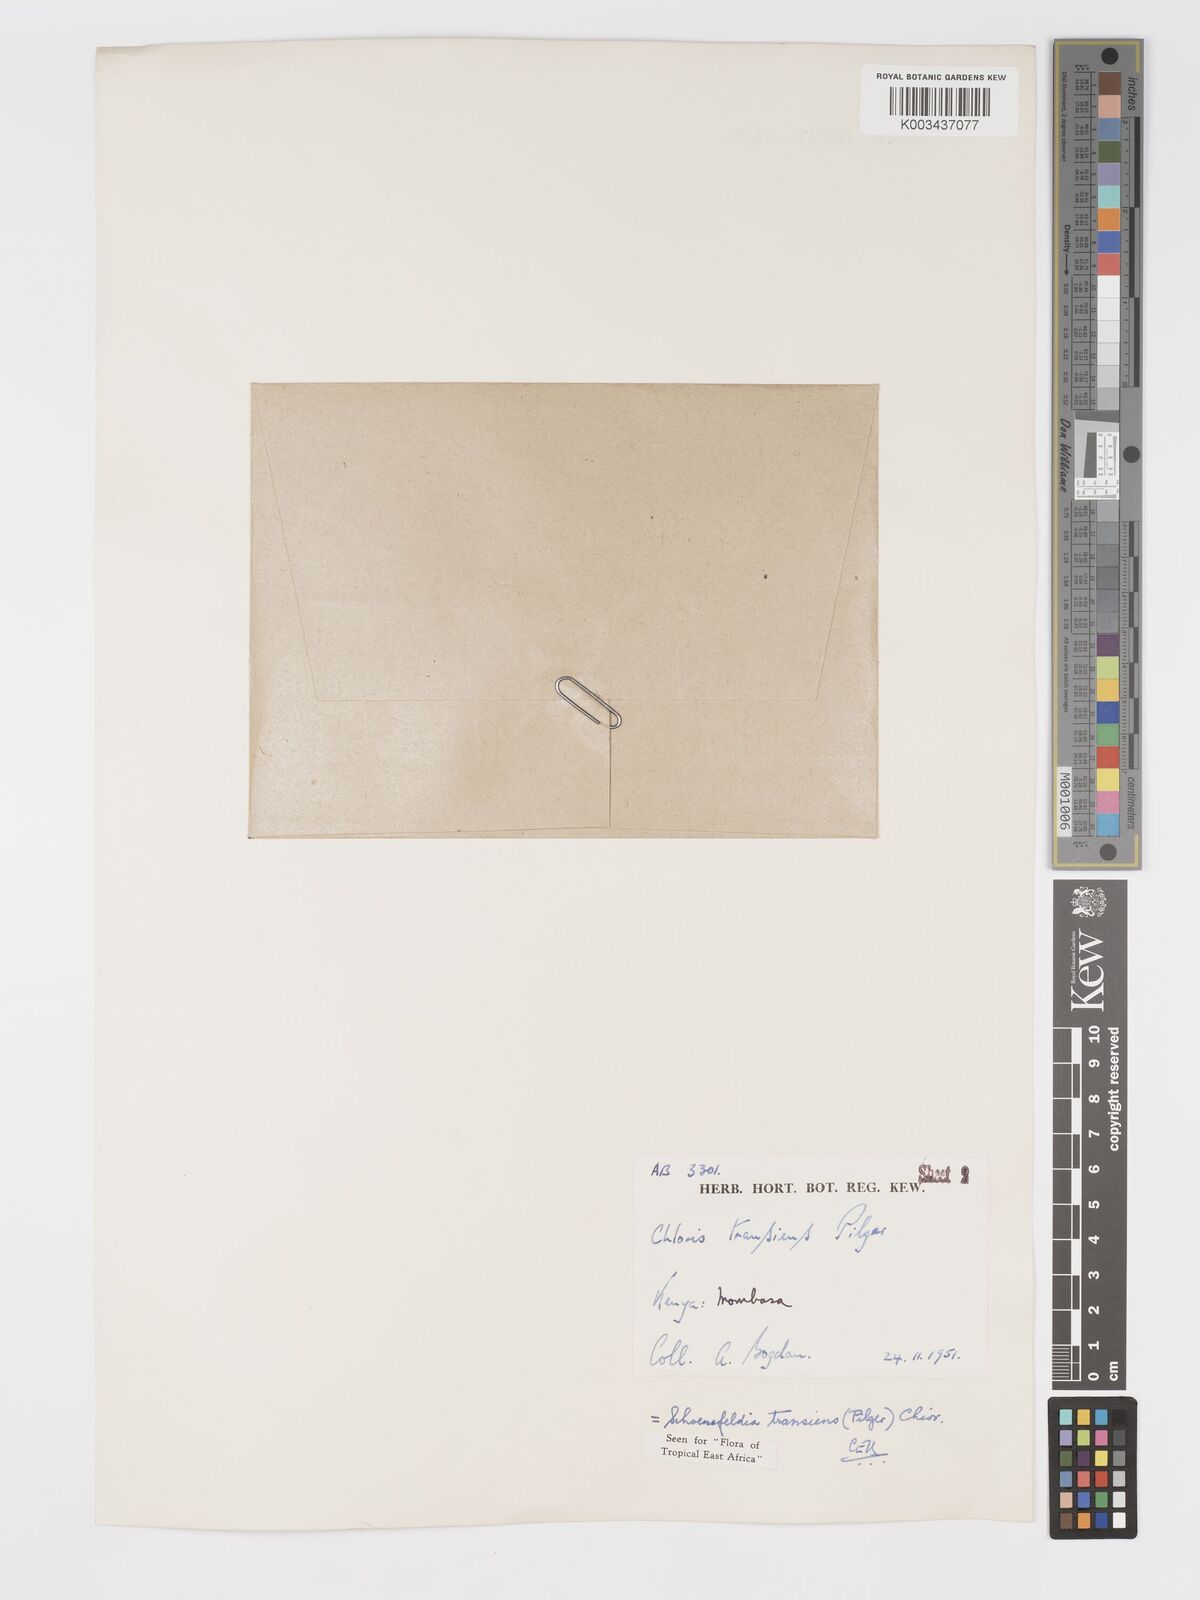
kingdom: Plantae
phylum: Tracheophyta
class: Liliopsida
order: Poales
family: Poaceae
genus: Schoenefeldia
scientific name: Schoenefeldia transiens
